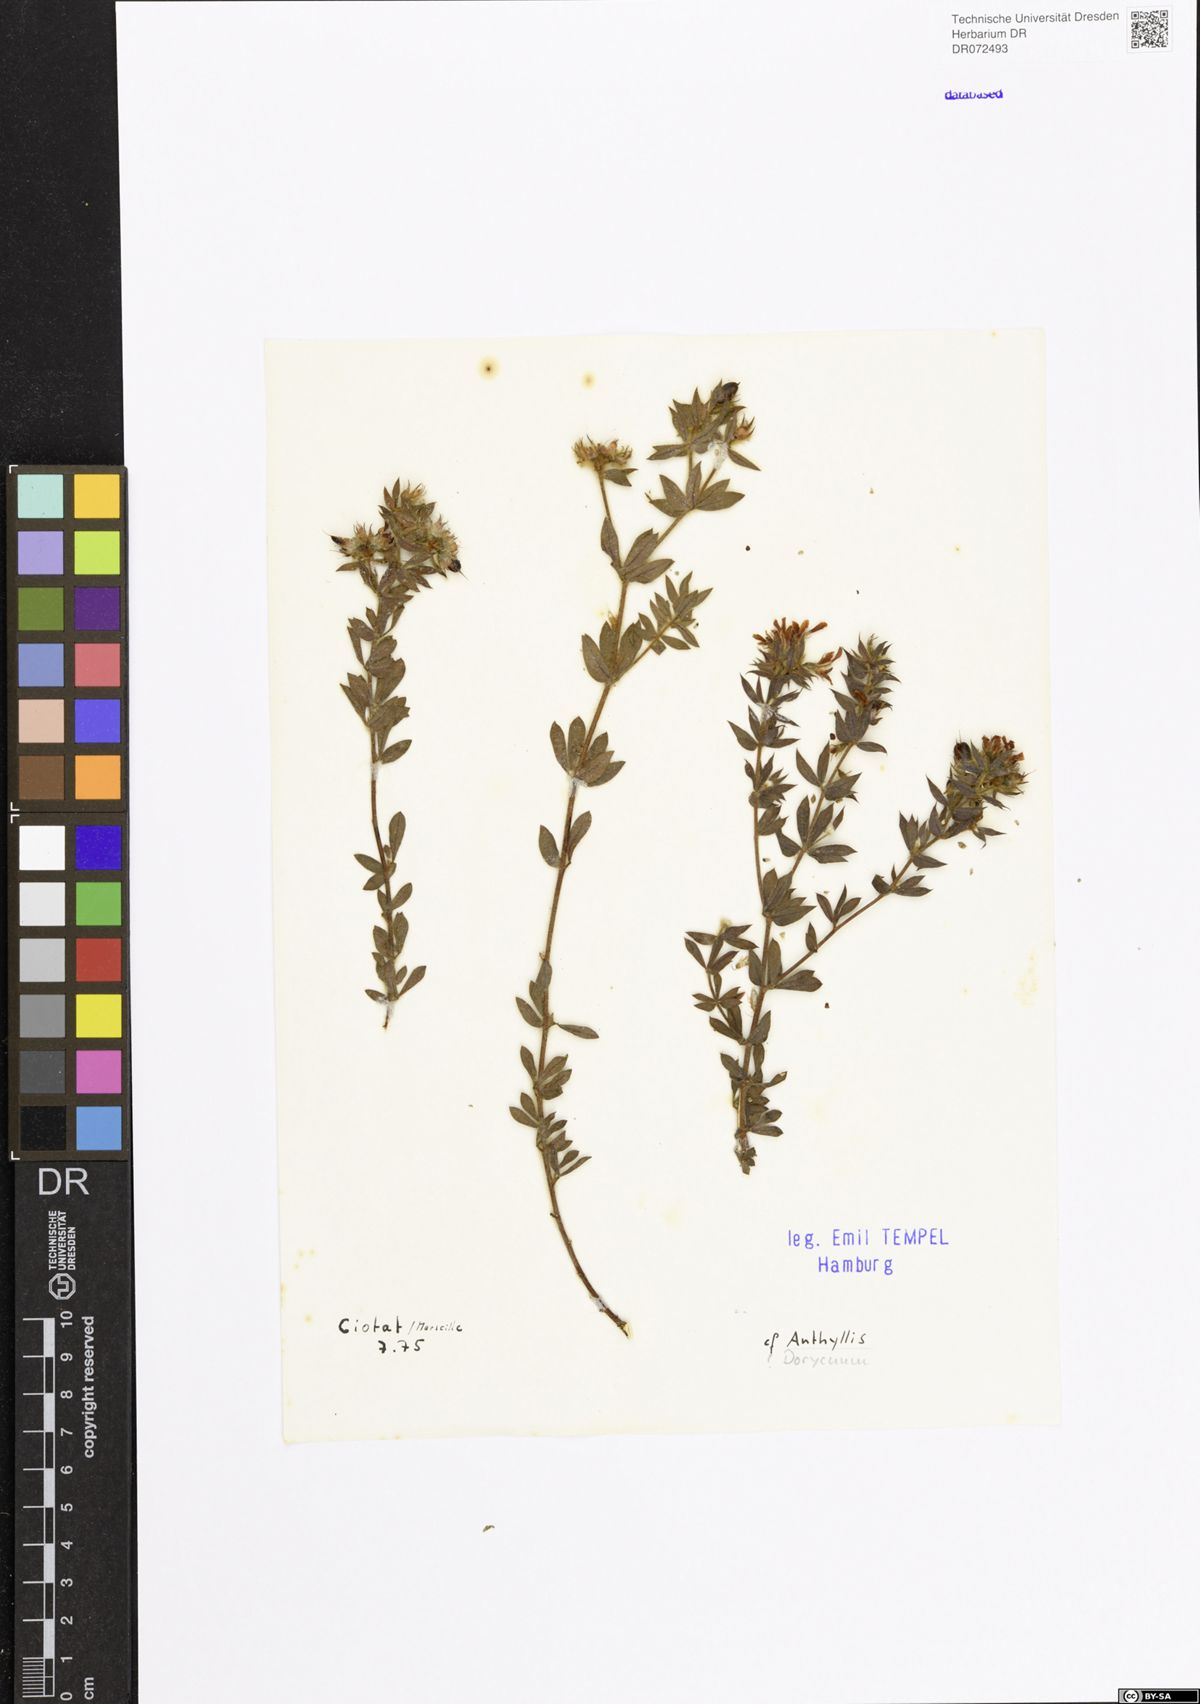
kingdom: Plantae
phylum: Tracheophyta
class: Magnoliopsida
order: Fabales
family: Fabaceae
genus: Anthyllis
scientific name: Anthyllis
